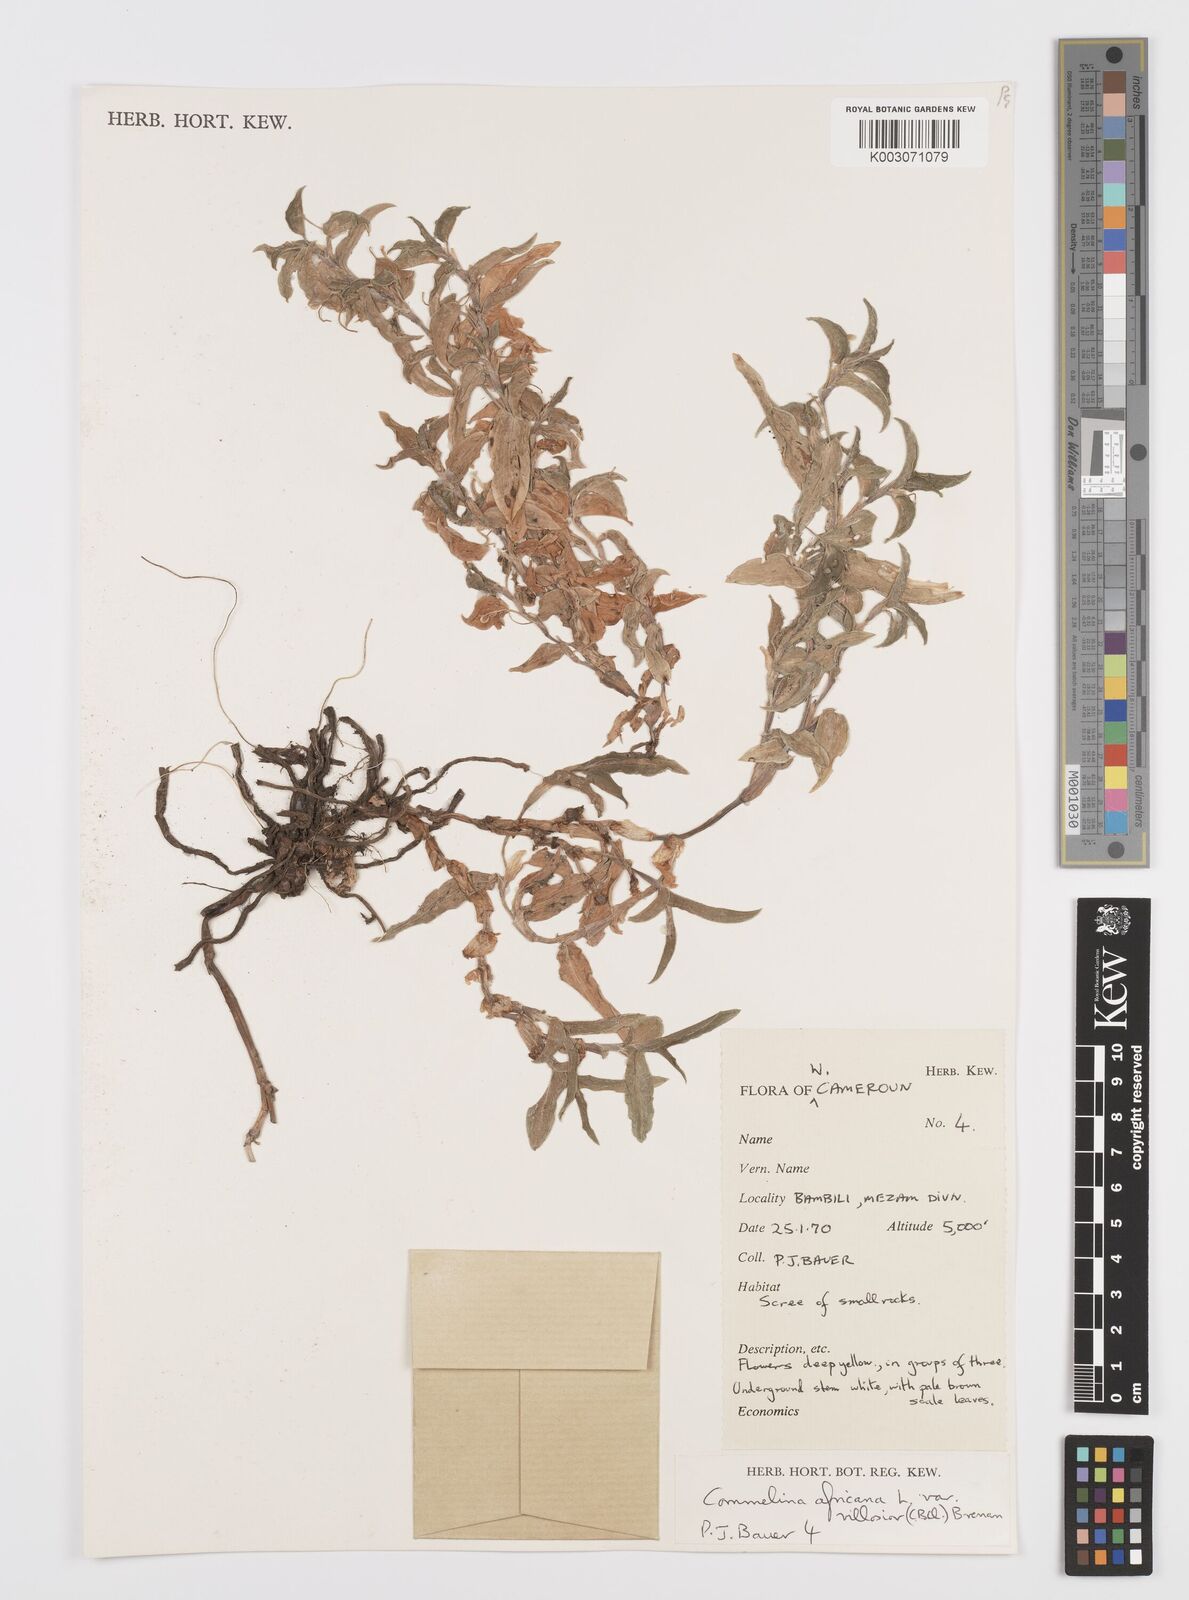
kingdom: Plantae
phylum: Tracheophyta
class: Liliopsida
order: Commelinales
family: Commelinaceae
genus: Commelina
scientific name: Commelina africana
